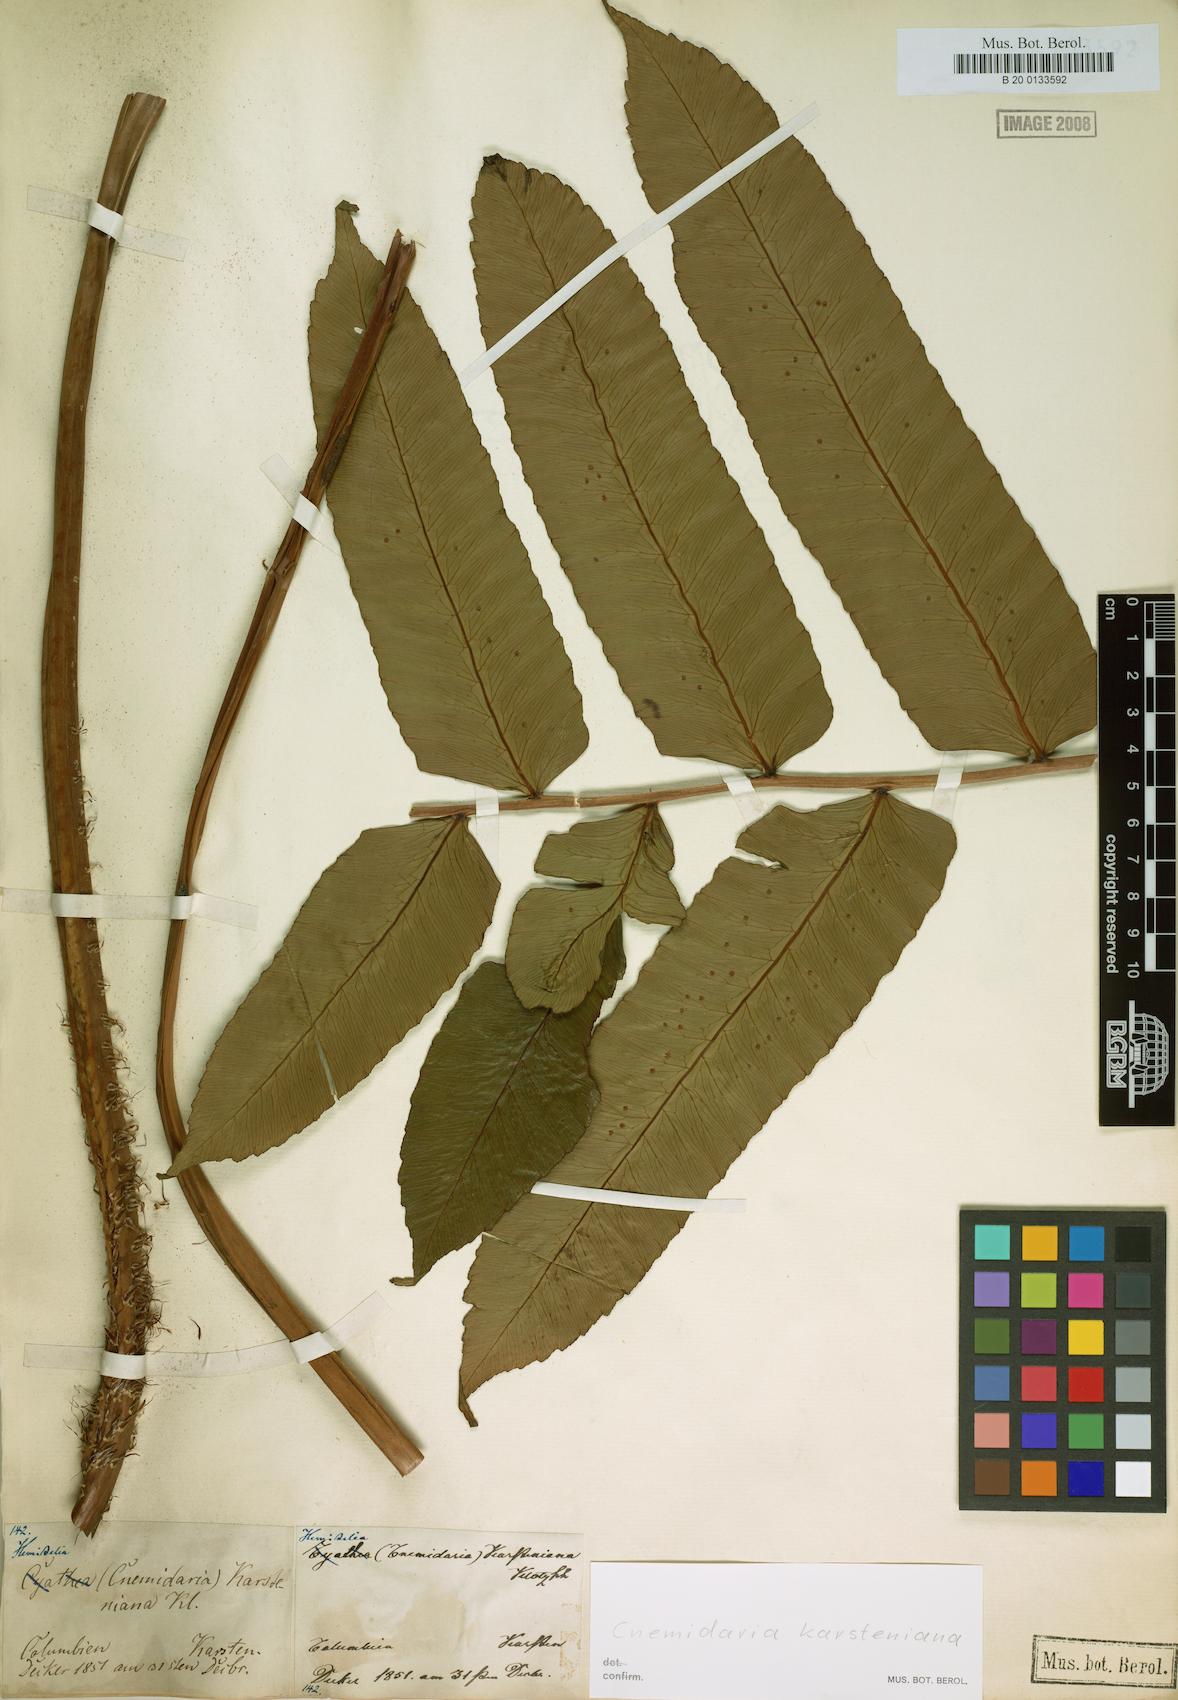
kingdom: Plantae
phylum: Tracheophyta
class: Polypodiopsida
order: Cyatheales
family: Cyatheaceae
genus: Cyathea
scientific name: Cyathea karsteniana
